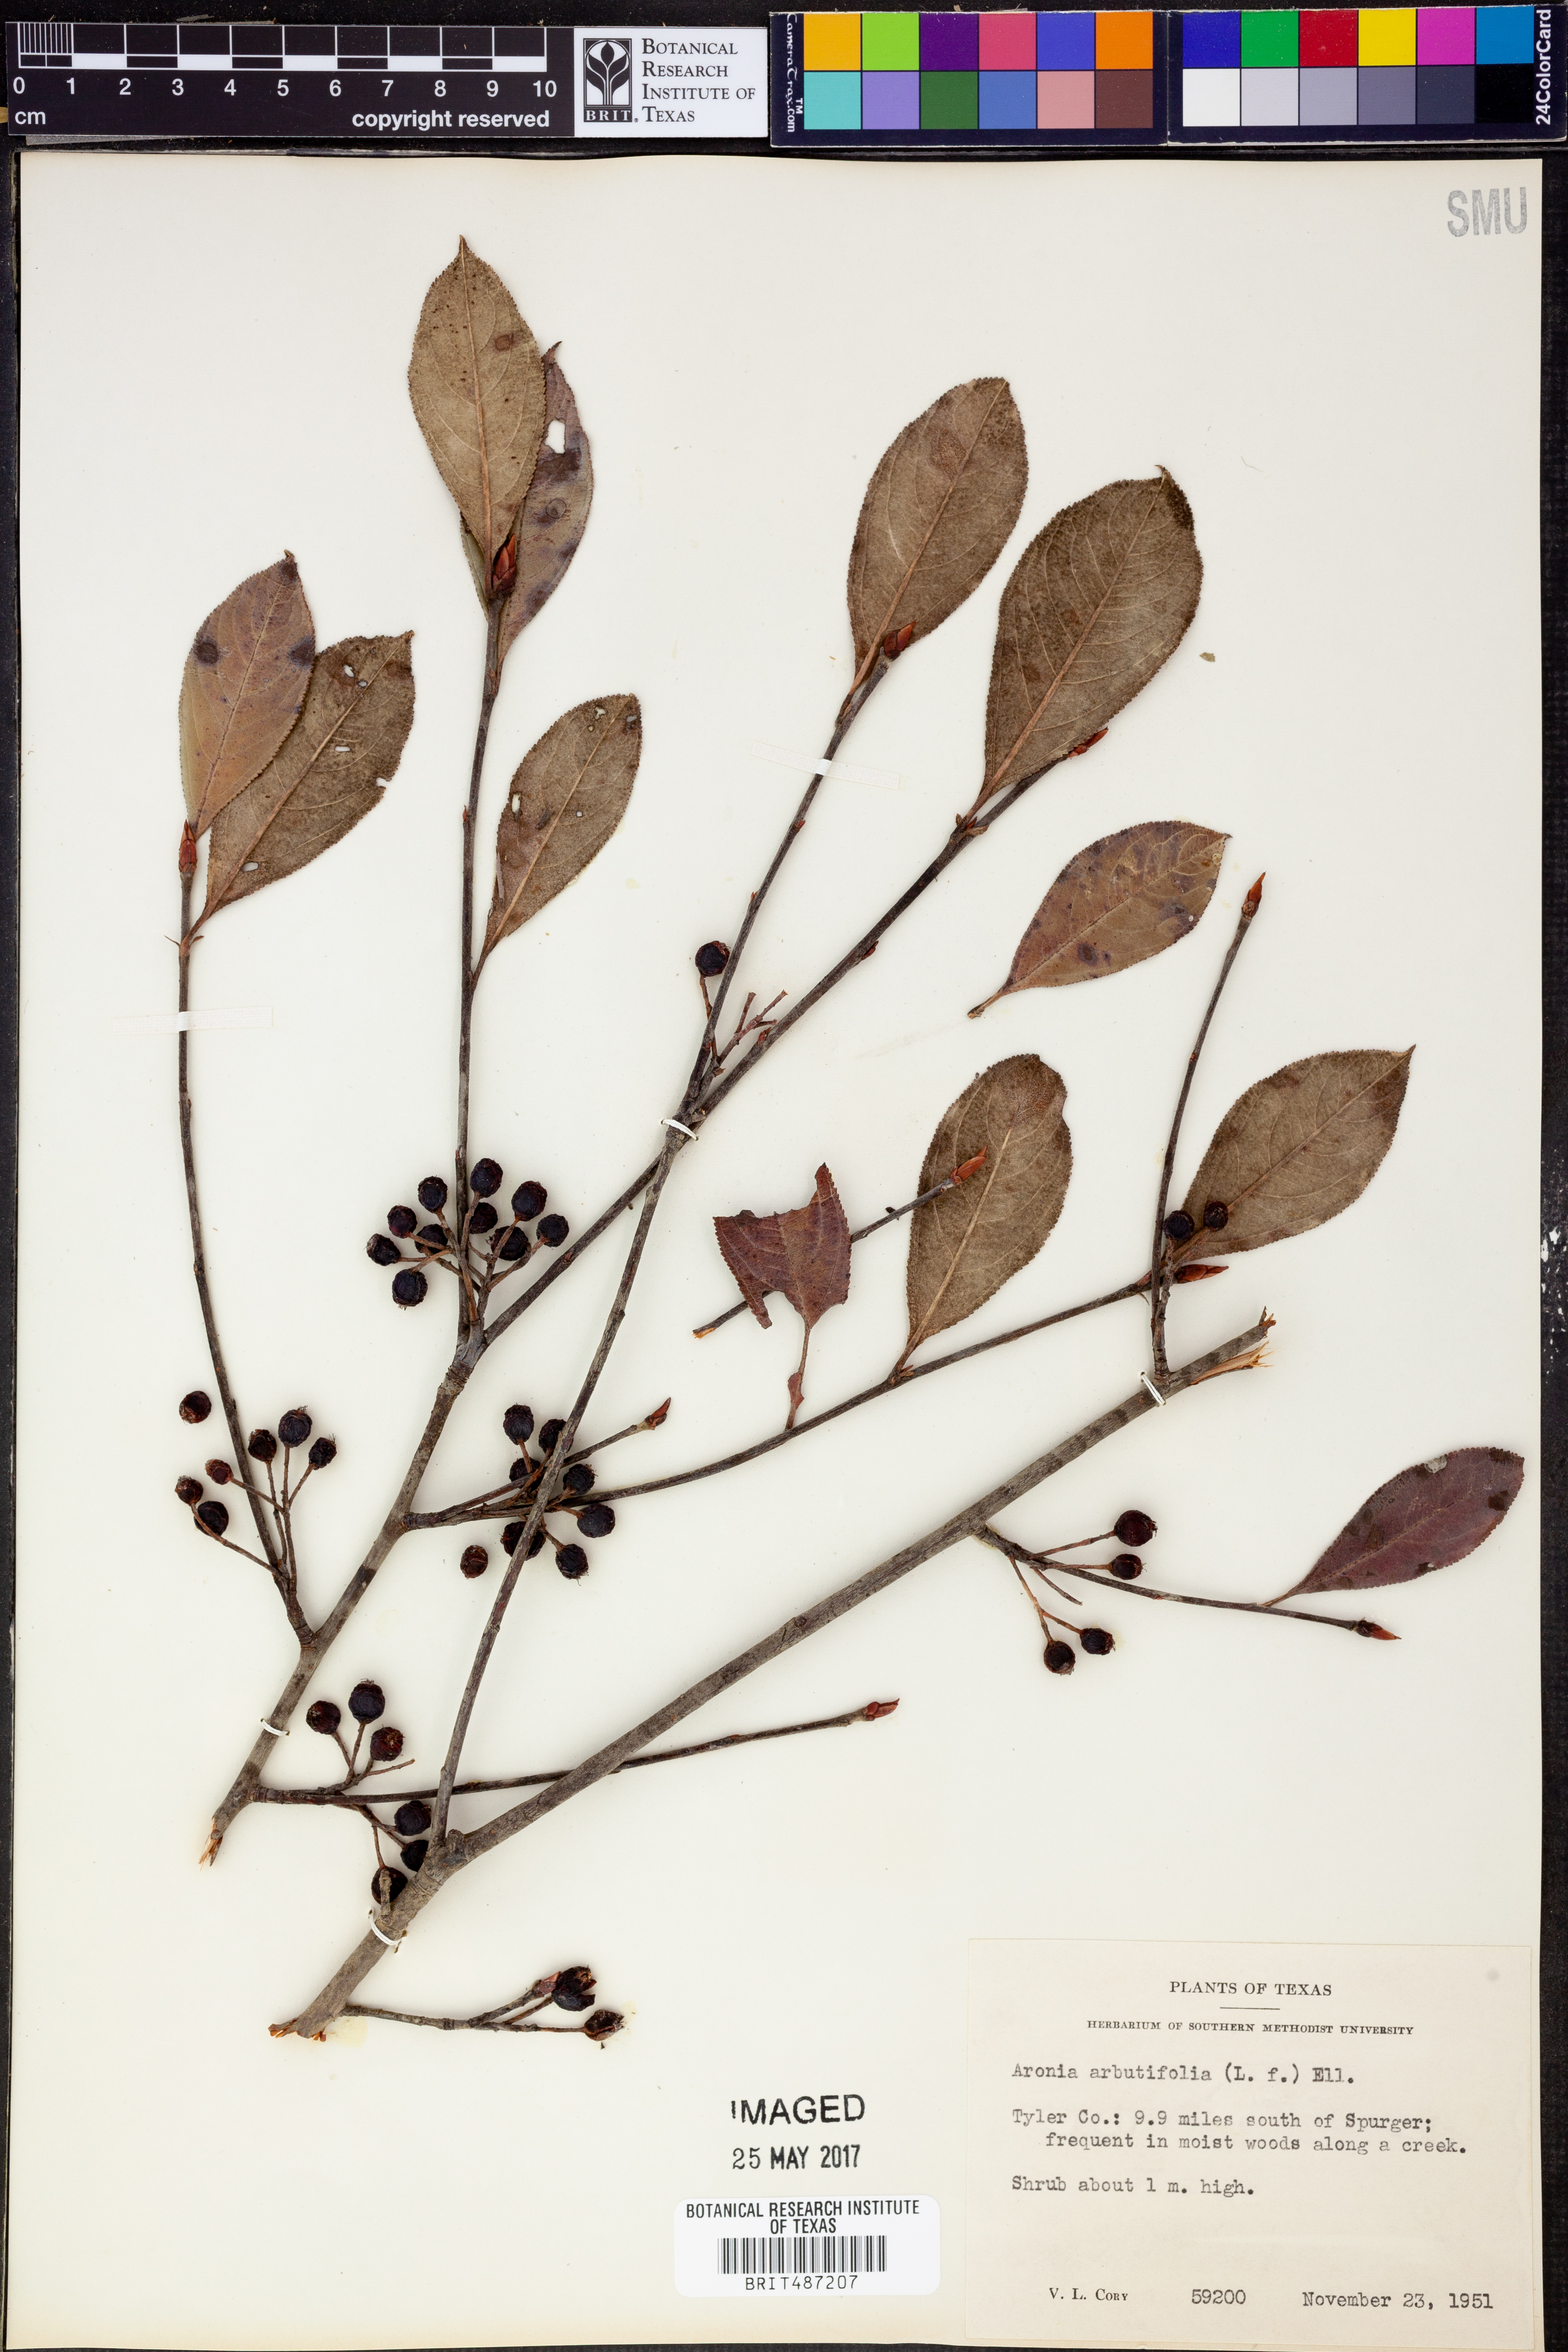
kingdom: Plantae
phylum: Tracheophyta
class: Magnoliopsida
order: Rosales
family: Rosaceae
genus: Aronia
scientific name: Aronia arbutifolia
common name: Red chokeberry
